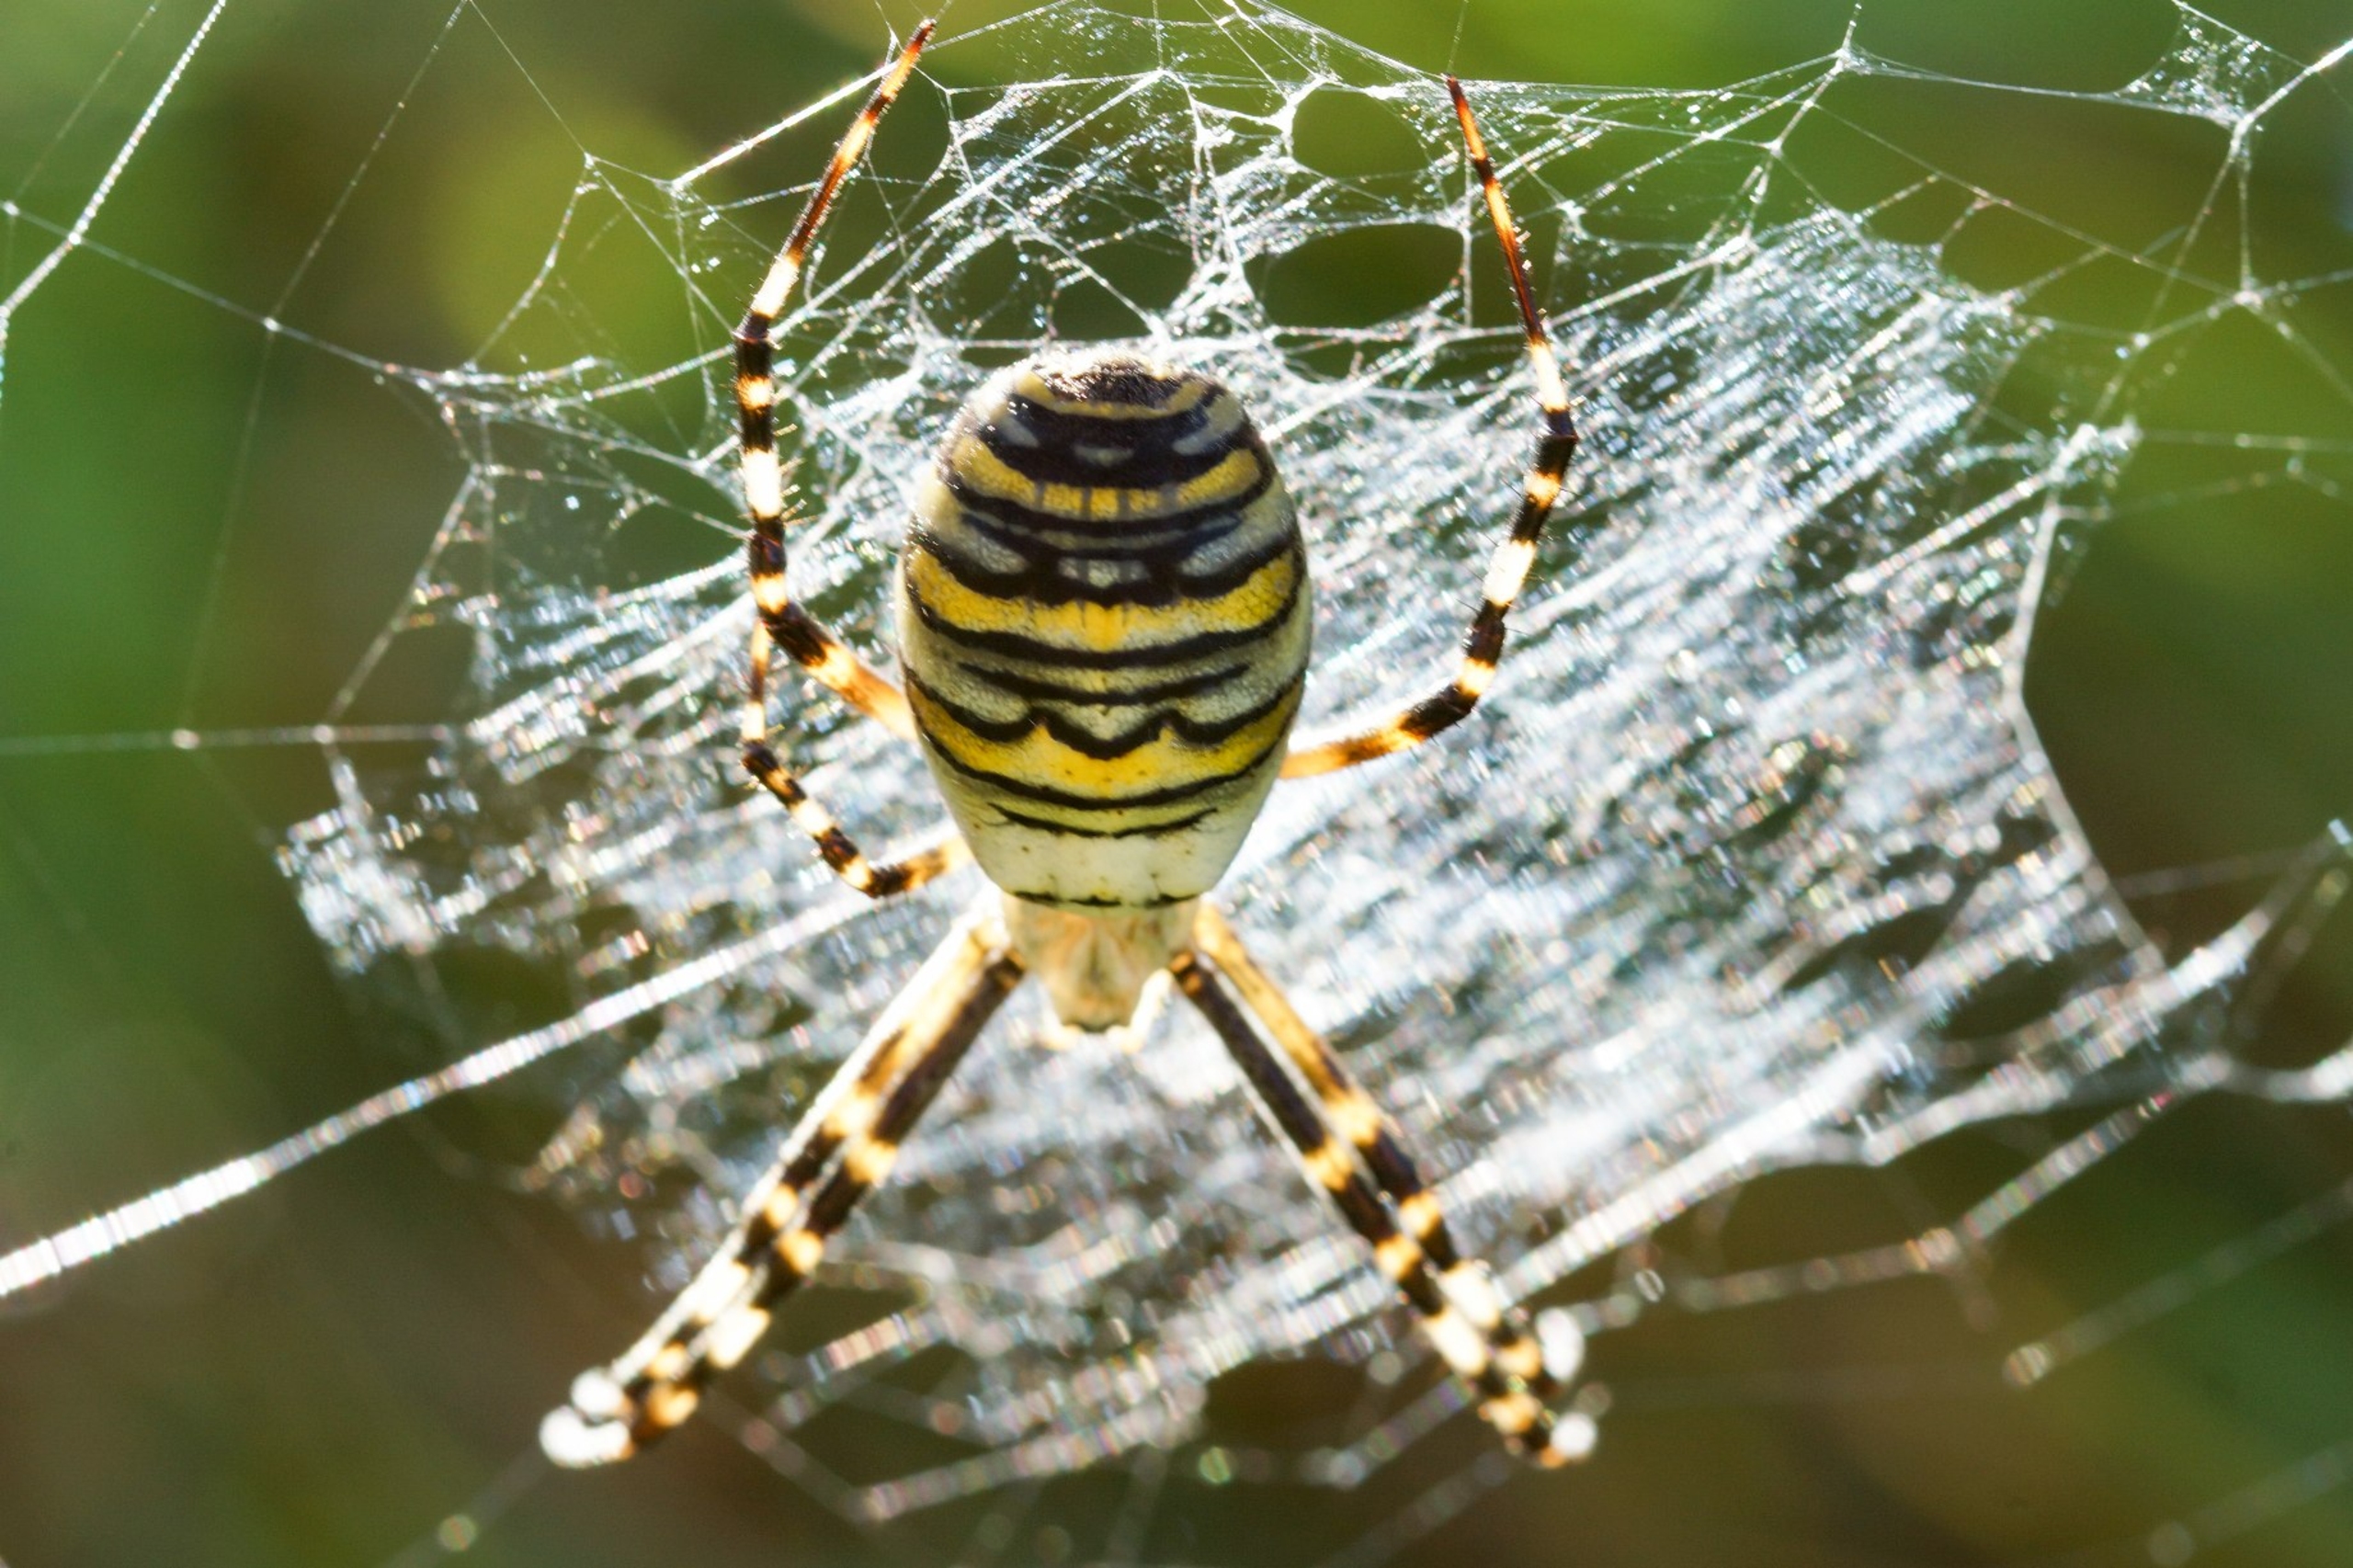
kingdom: Animalia
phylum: Arthropoda
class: Arachnida
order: Araneae
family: Araneidae
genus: Argiope
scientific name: Argiope bruennichi
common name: Hvepseedderkop
